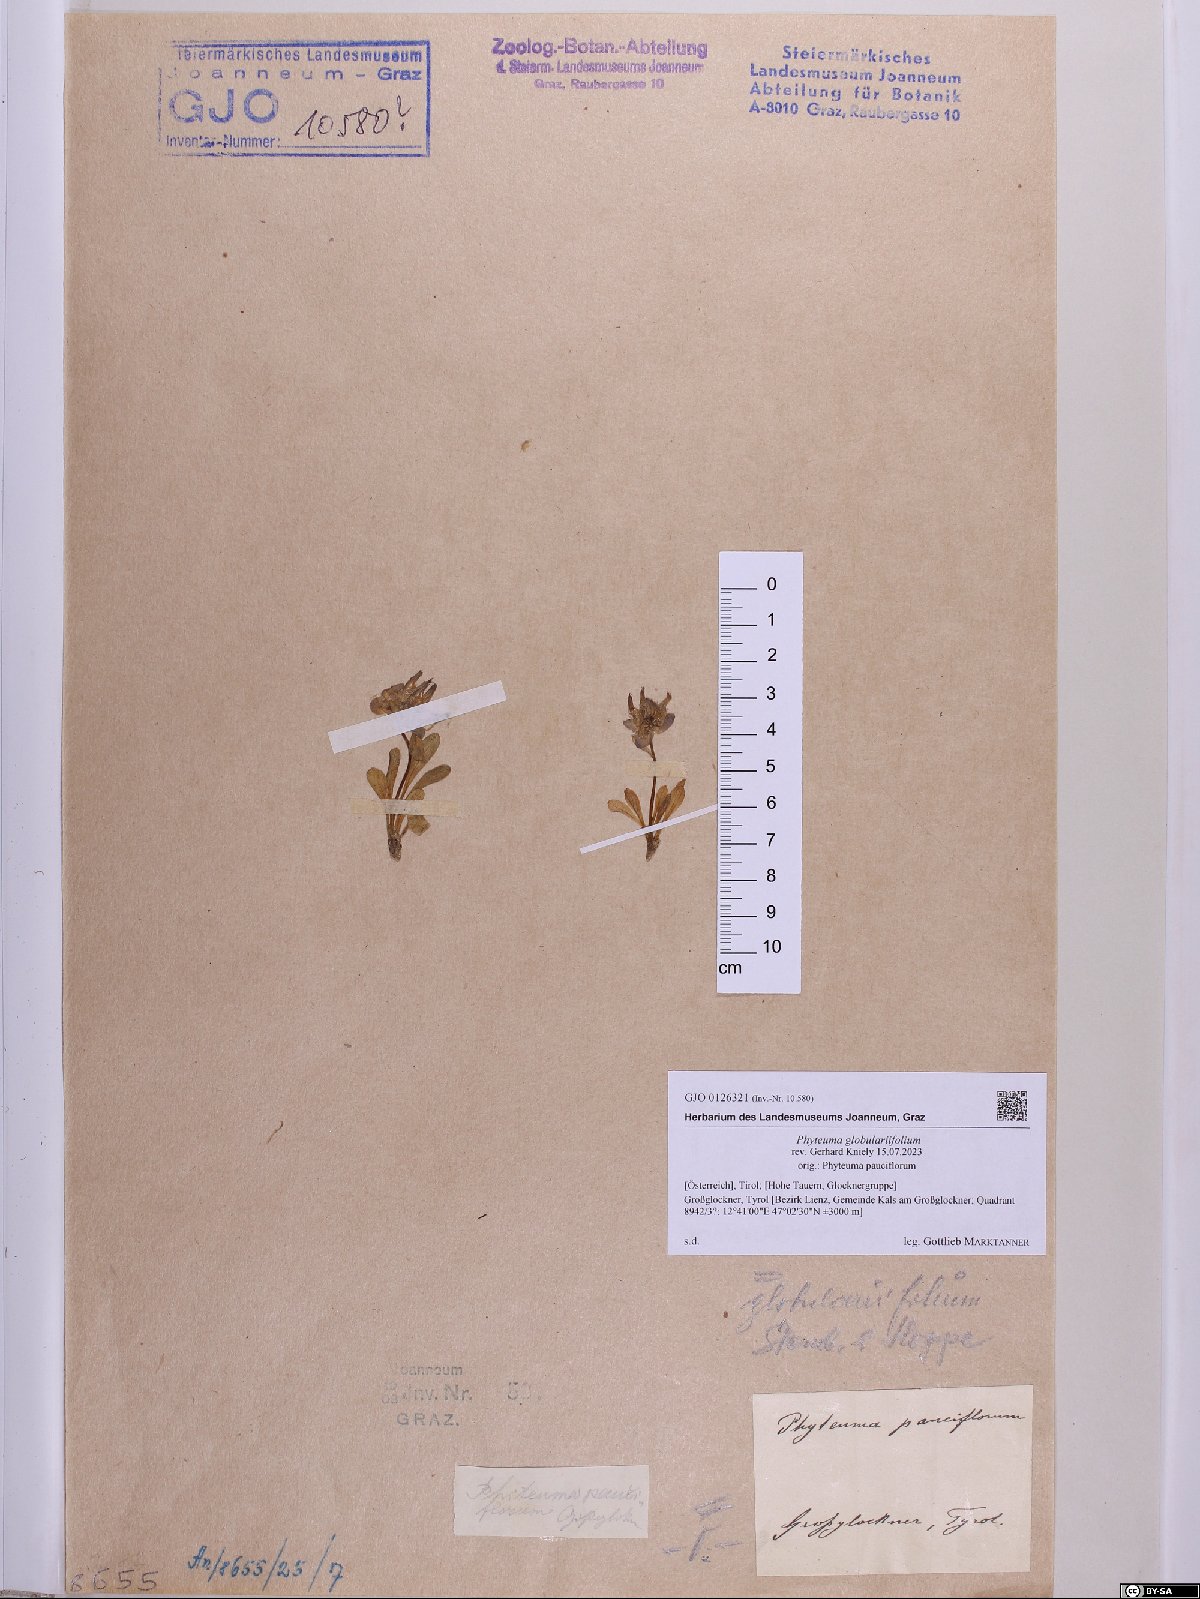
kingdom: Plantae
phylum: Tracheophyta
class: Magnoliopsida
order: Asterales
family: Campanulaceae
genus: Phyteuma
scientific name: Phyteuma globulariifolium
